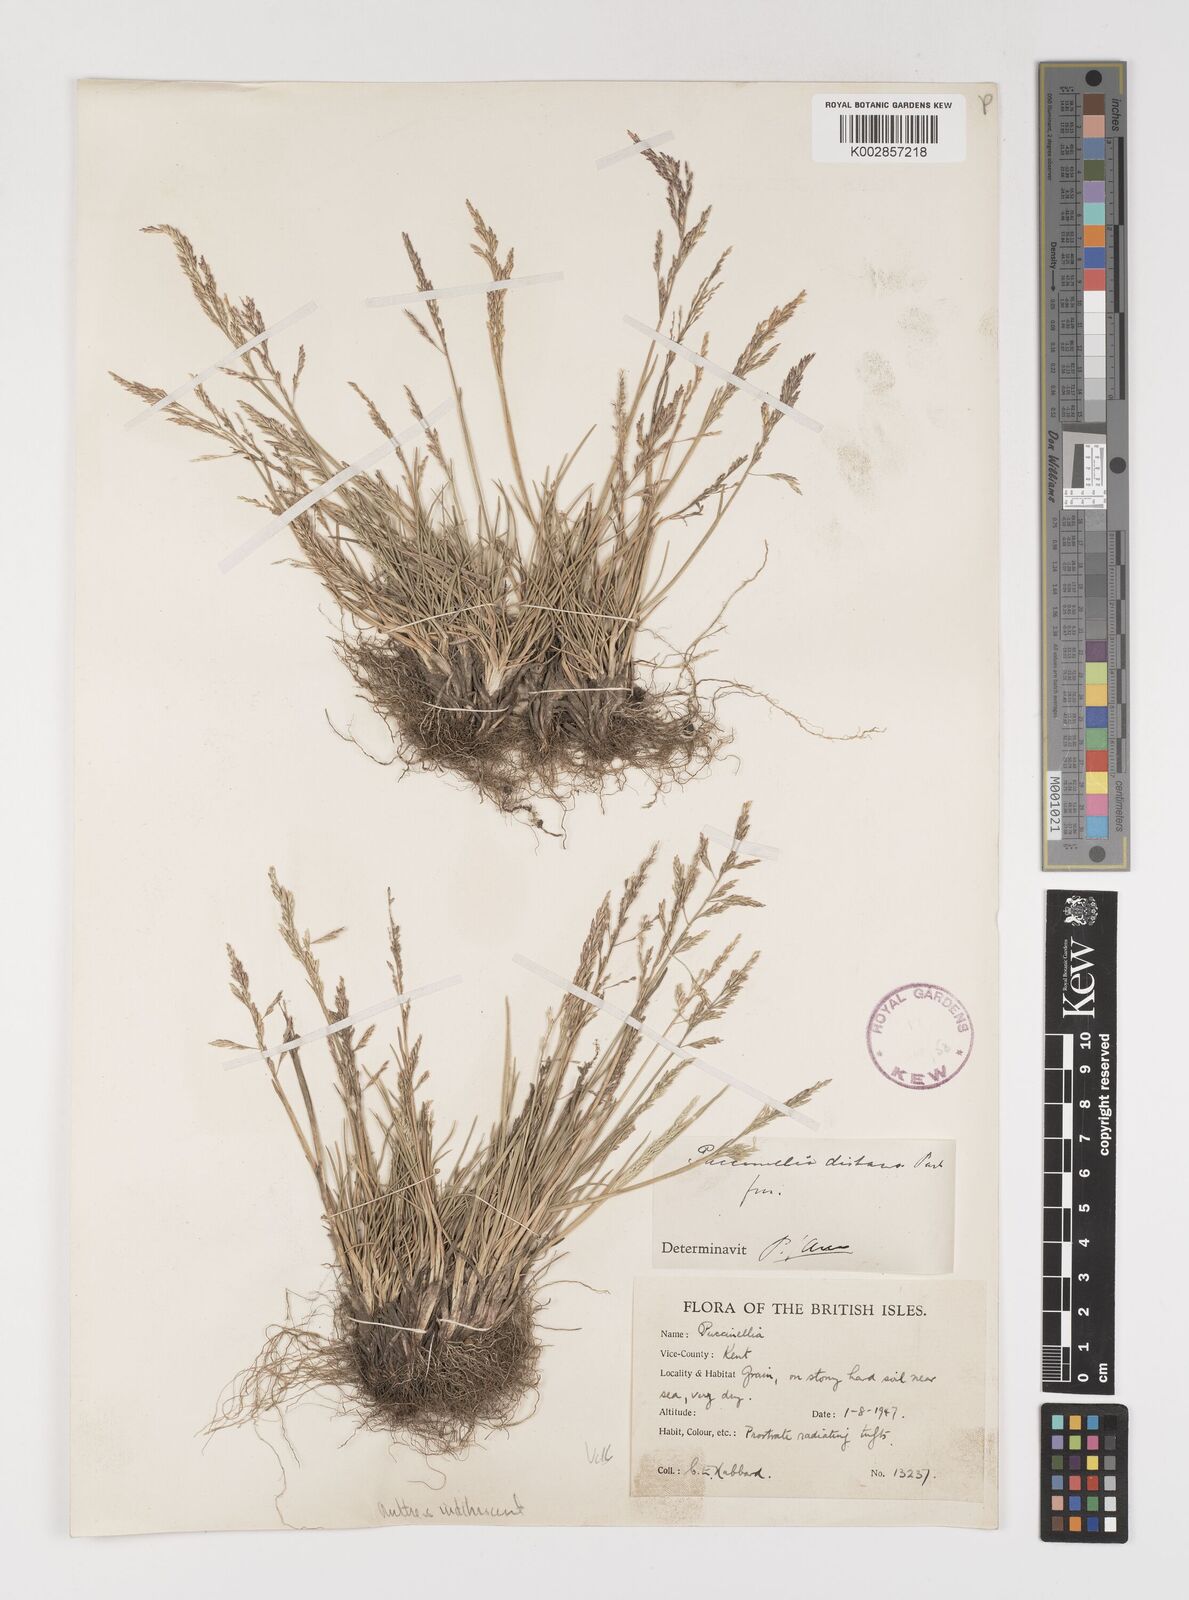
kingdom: Plantae
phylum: Tracheophyta
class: Liliopsida
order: Poales
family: Poaceae
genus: Puccinellia
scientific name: Puccinellia
